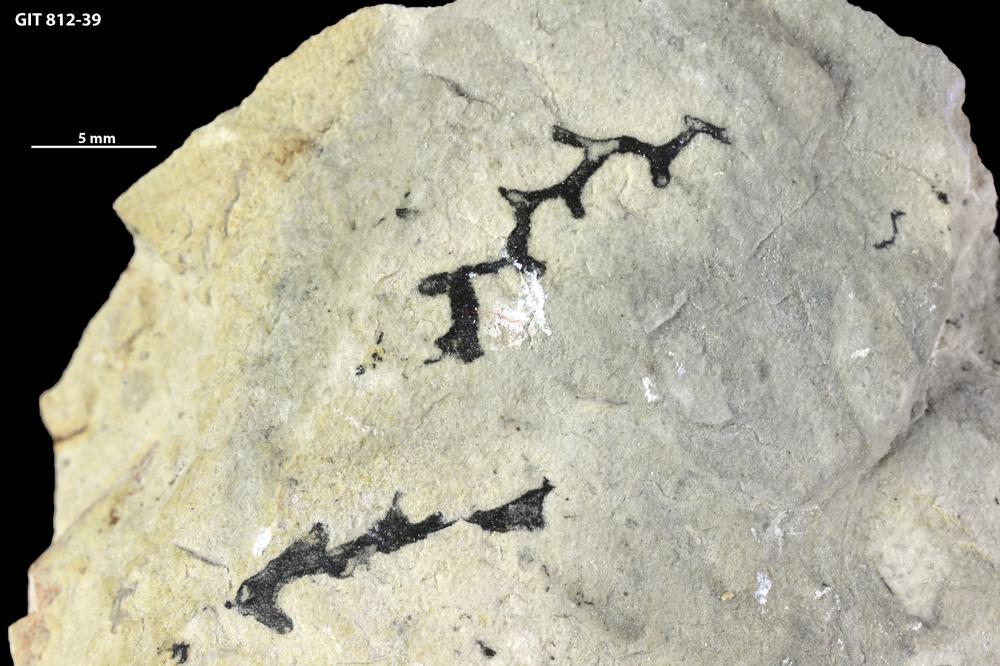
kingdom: Animalia
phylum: Cnidaria
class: Hydrozoa
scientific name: Hydrozoa
